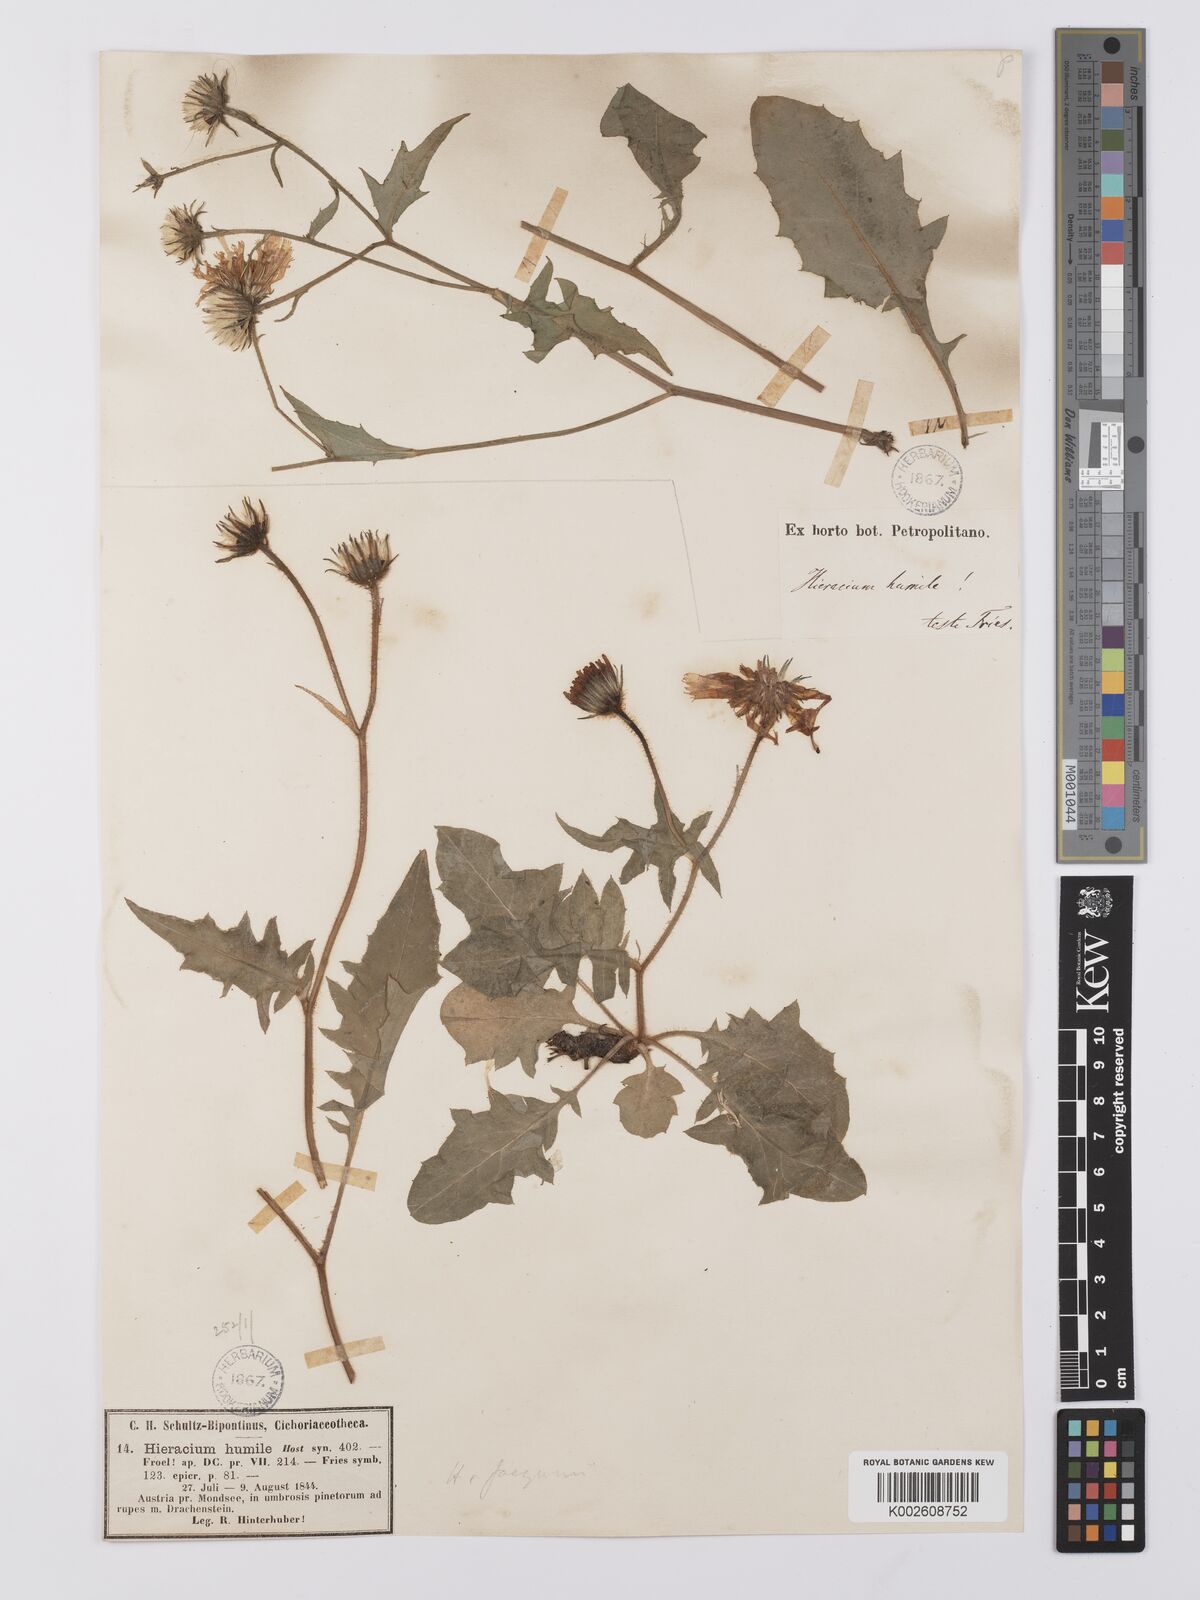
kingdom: Plantae
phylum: Tracheophyta
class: Magnoliopsida
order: Asterales
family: Asteraceae
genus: Hieracium
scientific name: Hieracium humile
